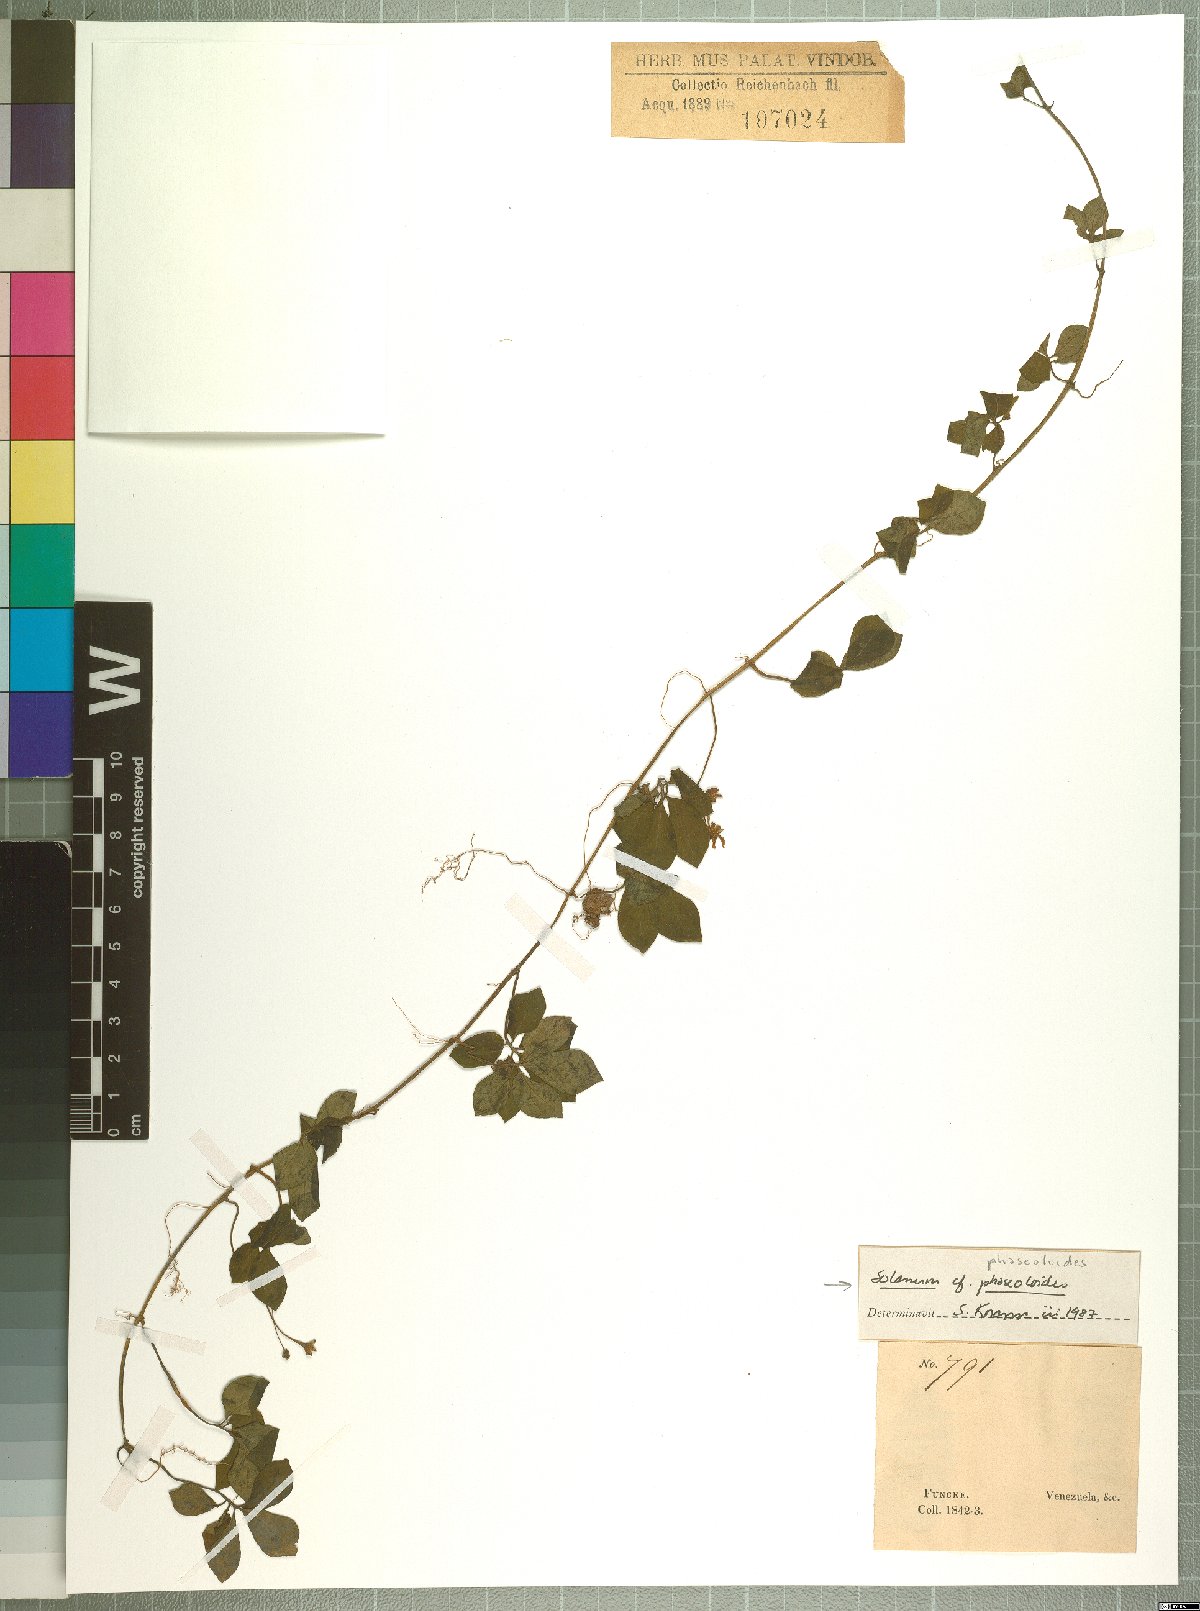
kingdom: Plantae
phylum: Tracheophyta
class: Magnoliopsida
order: Solanales
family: Solanaceae
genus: Solanum
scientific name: Solanum phaseoloides
